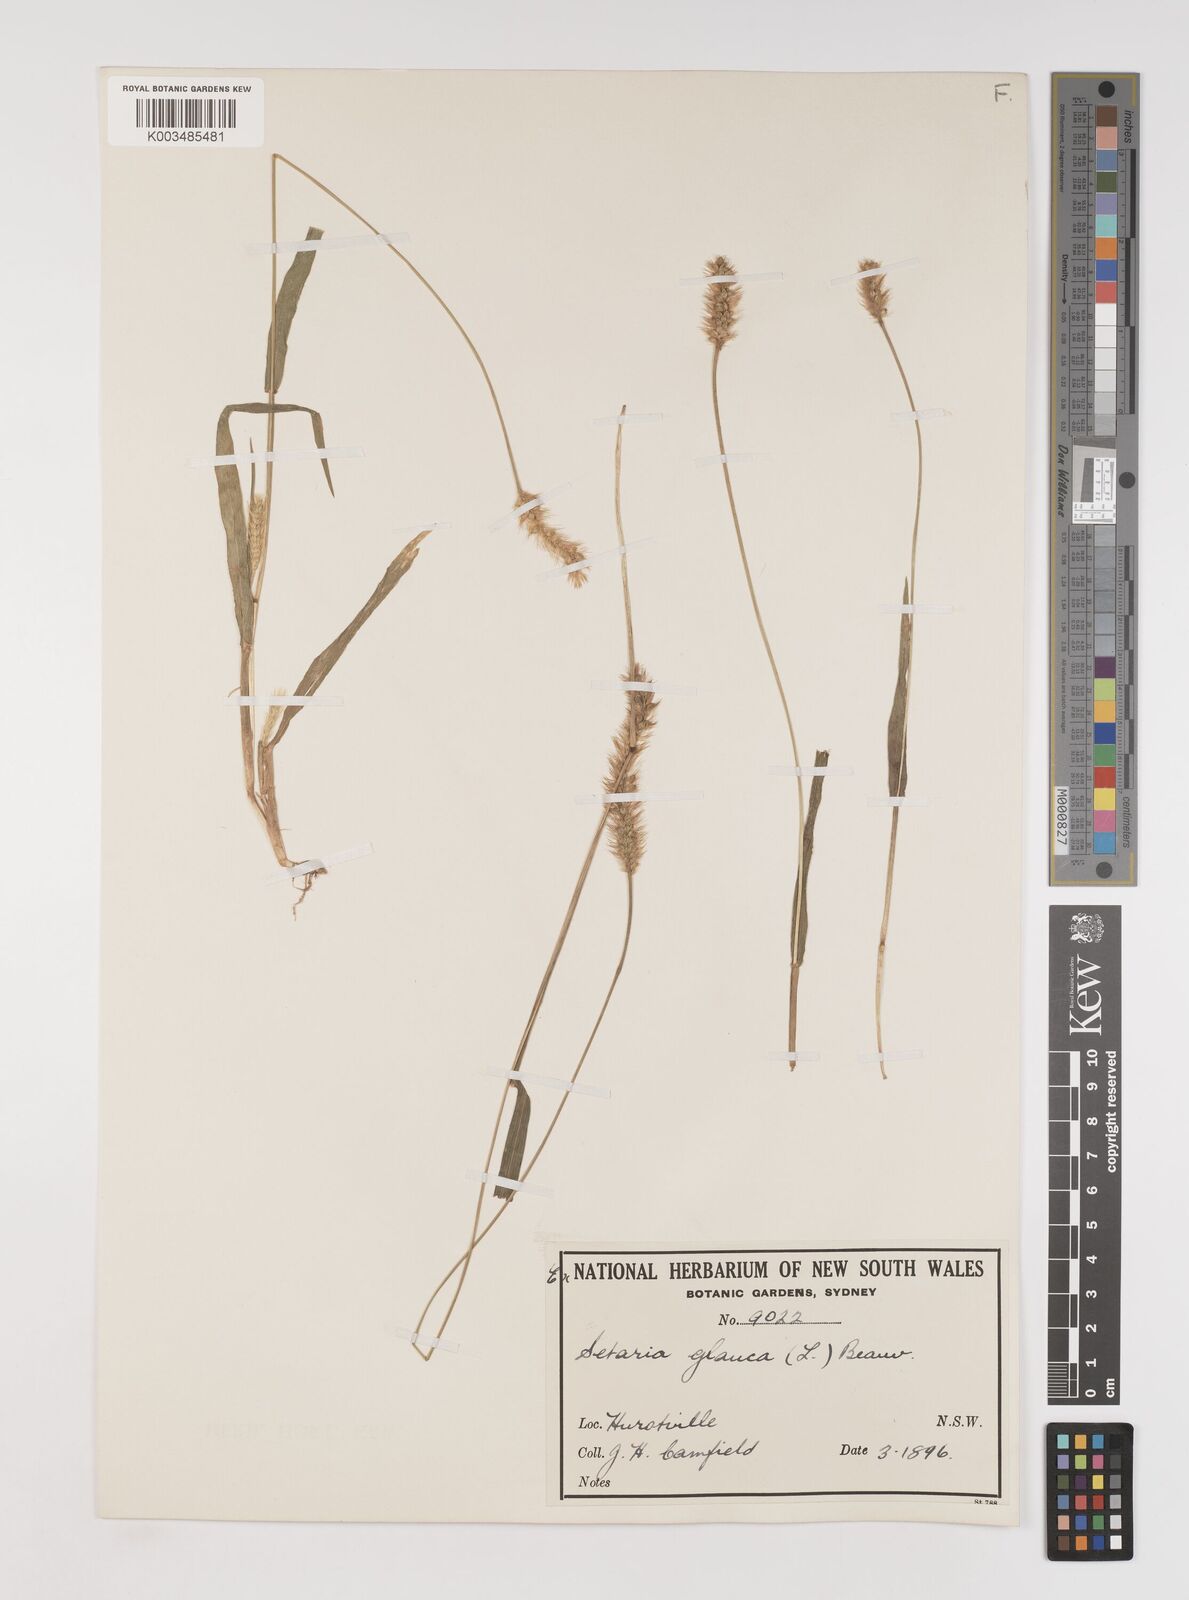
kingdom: Plantae
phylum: Tracheophyta
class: Liliopsida
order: Poales
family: Poaceae
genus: Setaria
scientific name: Setaria pumila
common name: Yellow bristle-grass
